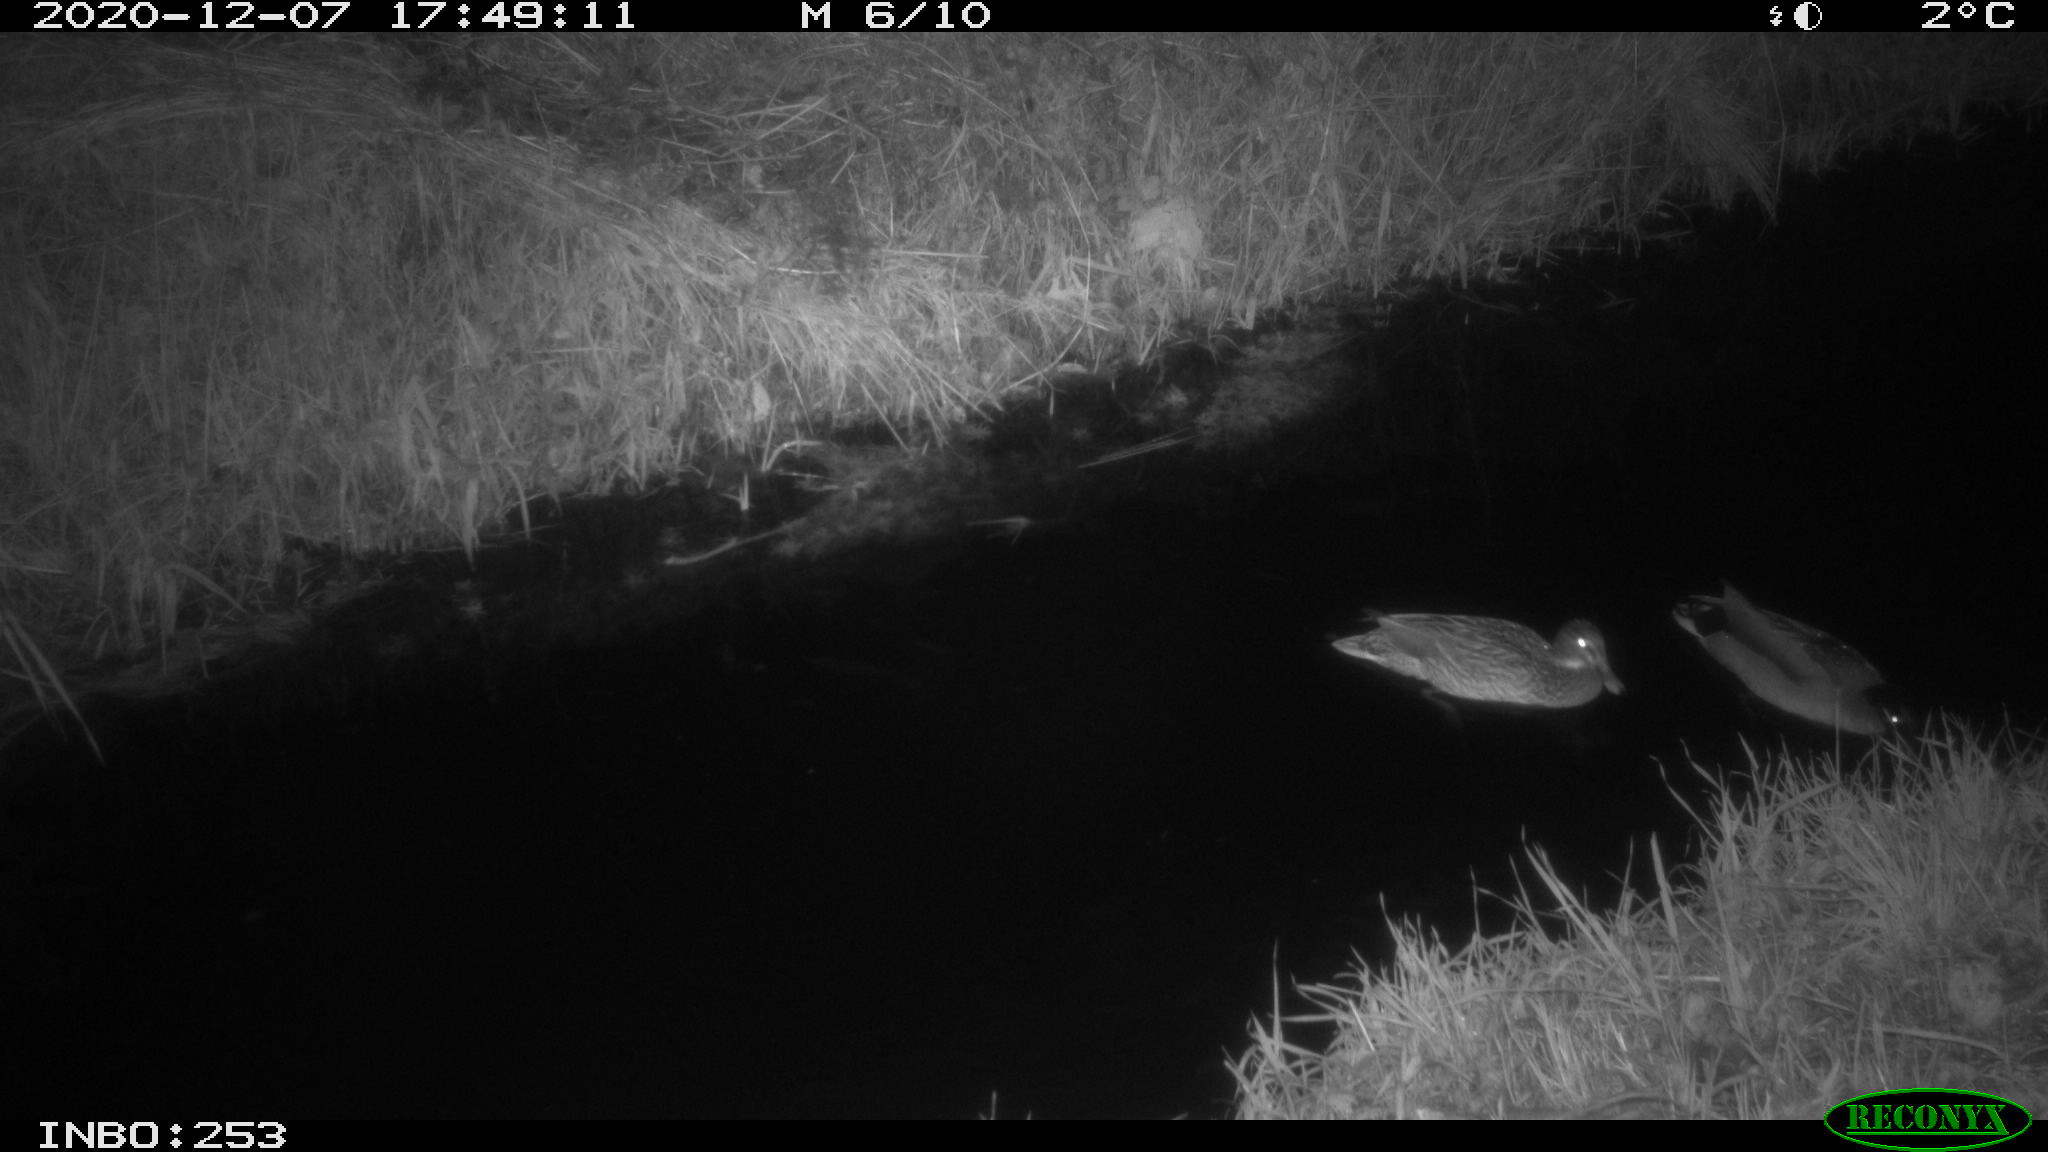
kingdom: Animalia
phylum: Chordata
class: Aves
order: Anseriformes
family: Anatidae
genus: Anas
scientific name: Anas platyrhynchos
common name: Mallard
